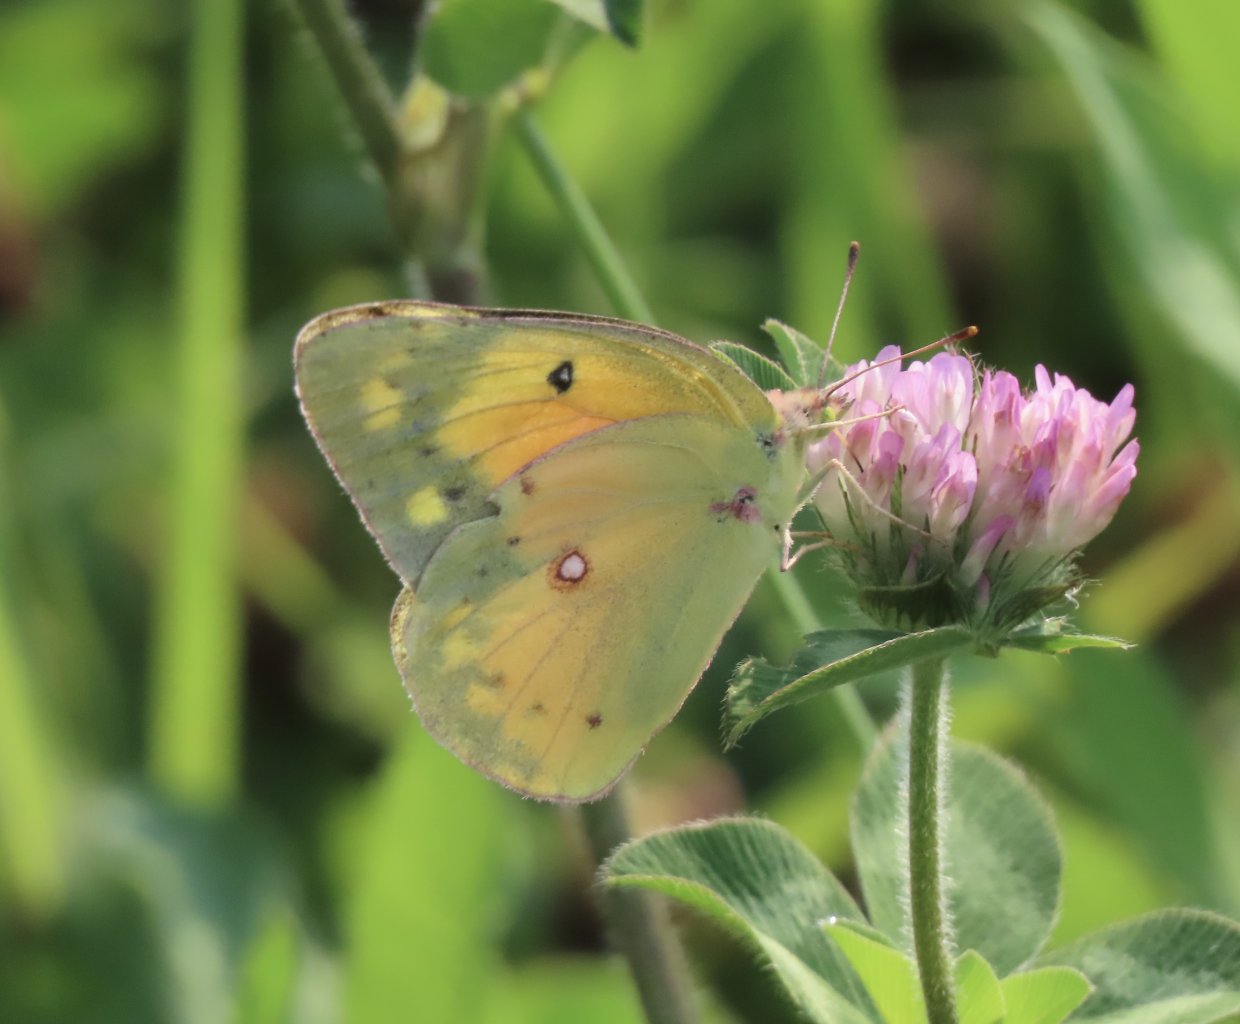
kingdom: Animalia
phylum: Arthropoda
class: Insecta
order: Lepidoptera
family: Pieridae
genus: Colias
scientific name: Colias eurytheme
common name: Orange Sulphur
